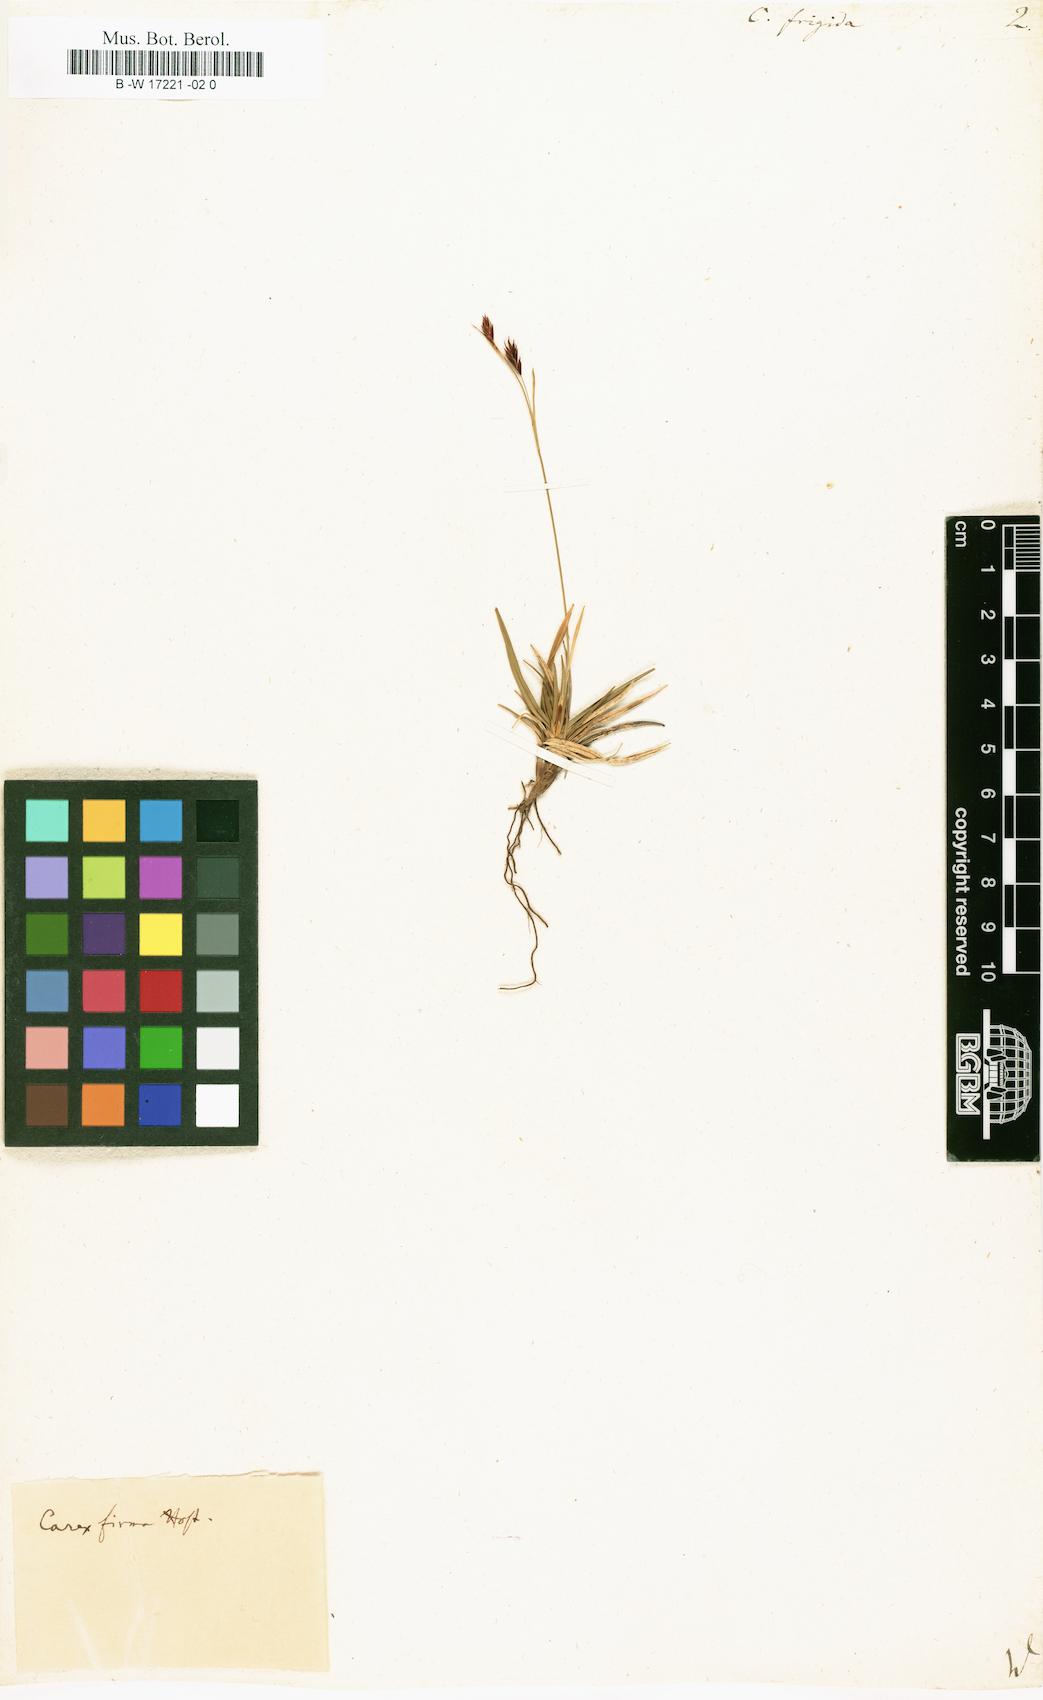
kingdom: Plantae
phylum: Tracheophyta
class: Liliopsida
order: Poales
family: Cyperaceae
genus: Carex
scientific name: Carex frigida
